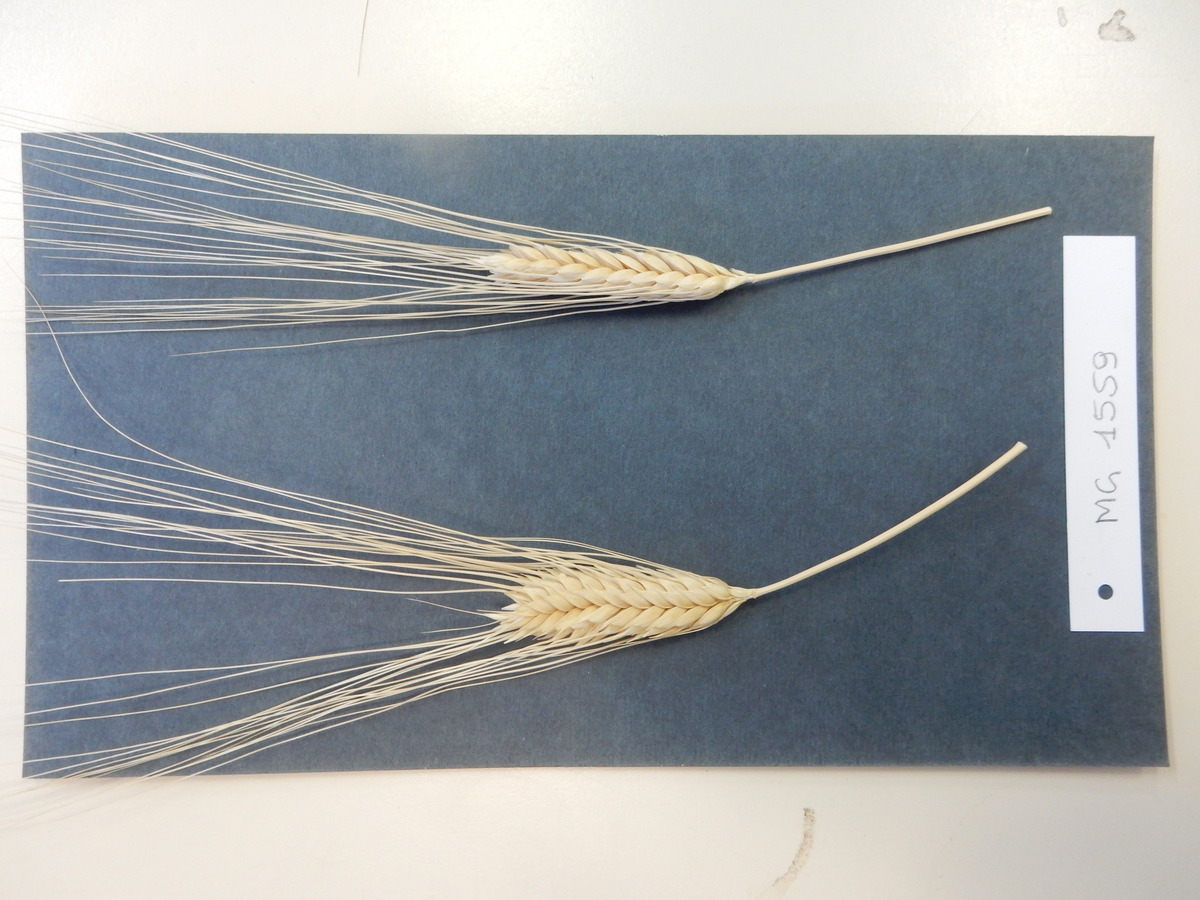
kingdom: Plantae
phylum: Tracheophyta
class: Liliopsida
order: Poales
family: Poaceae
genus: Triticum
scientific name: Triticum turgidum
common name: Wheat
